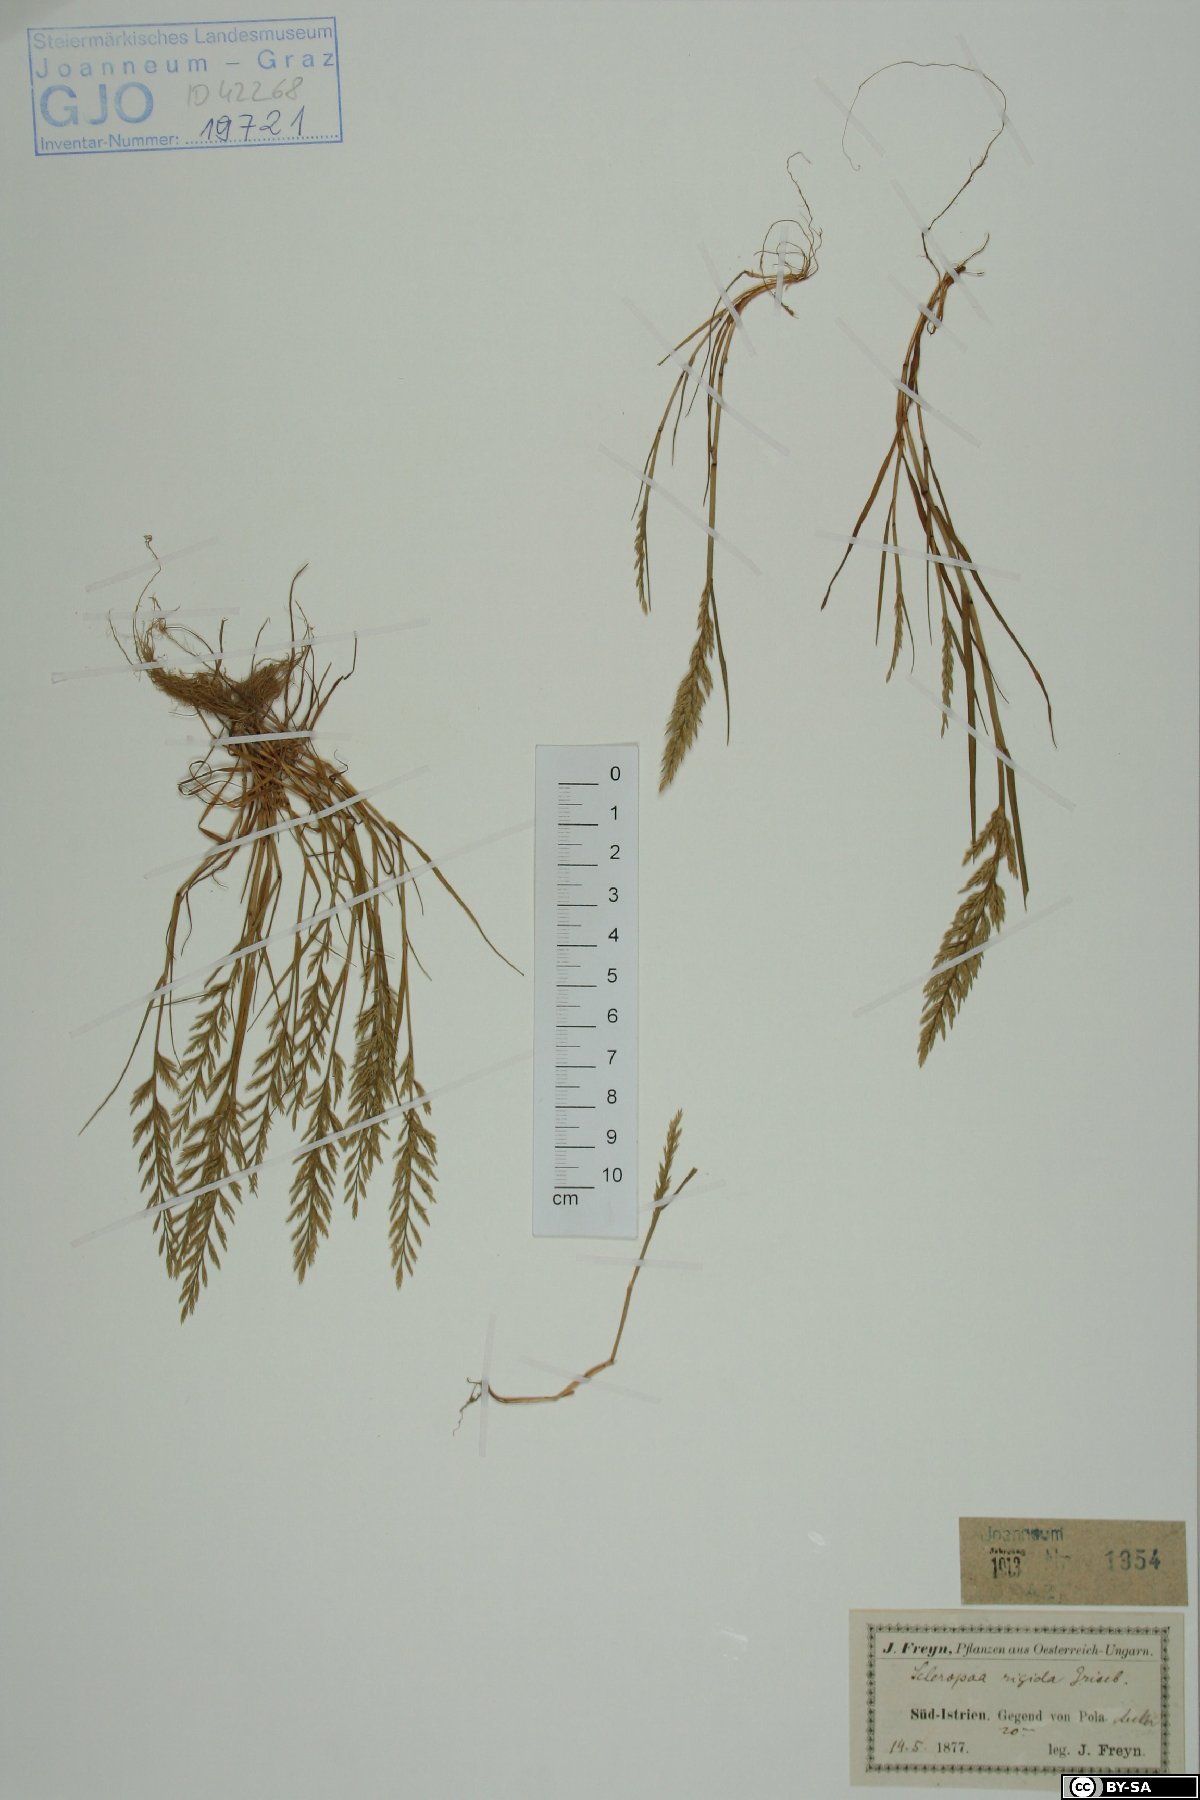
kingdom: Plantae
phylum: Tracheophyta
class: Liliopsida
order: Poales
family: Poaceae
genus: Catapodium
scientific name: Catapodium rigidum
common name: Fern-grass
